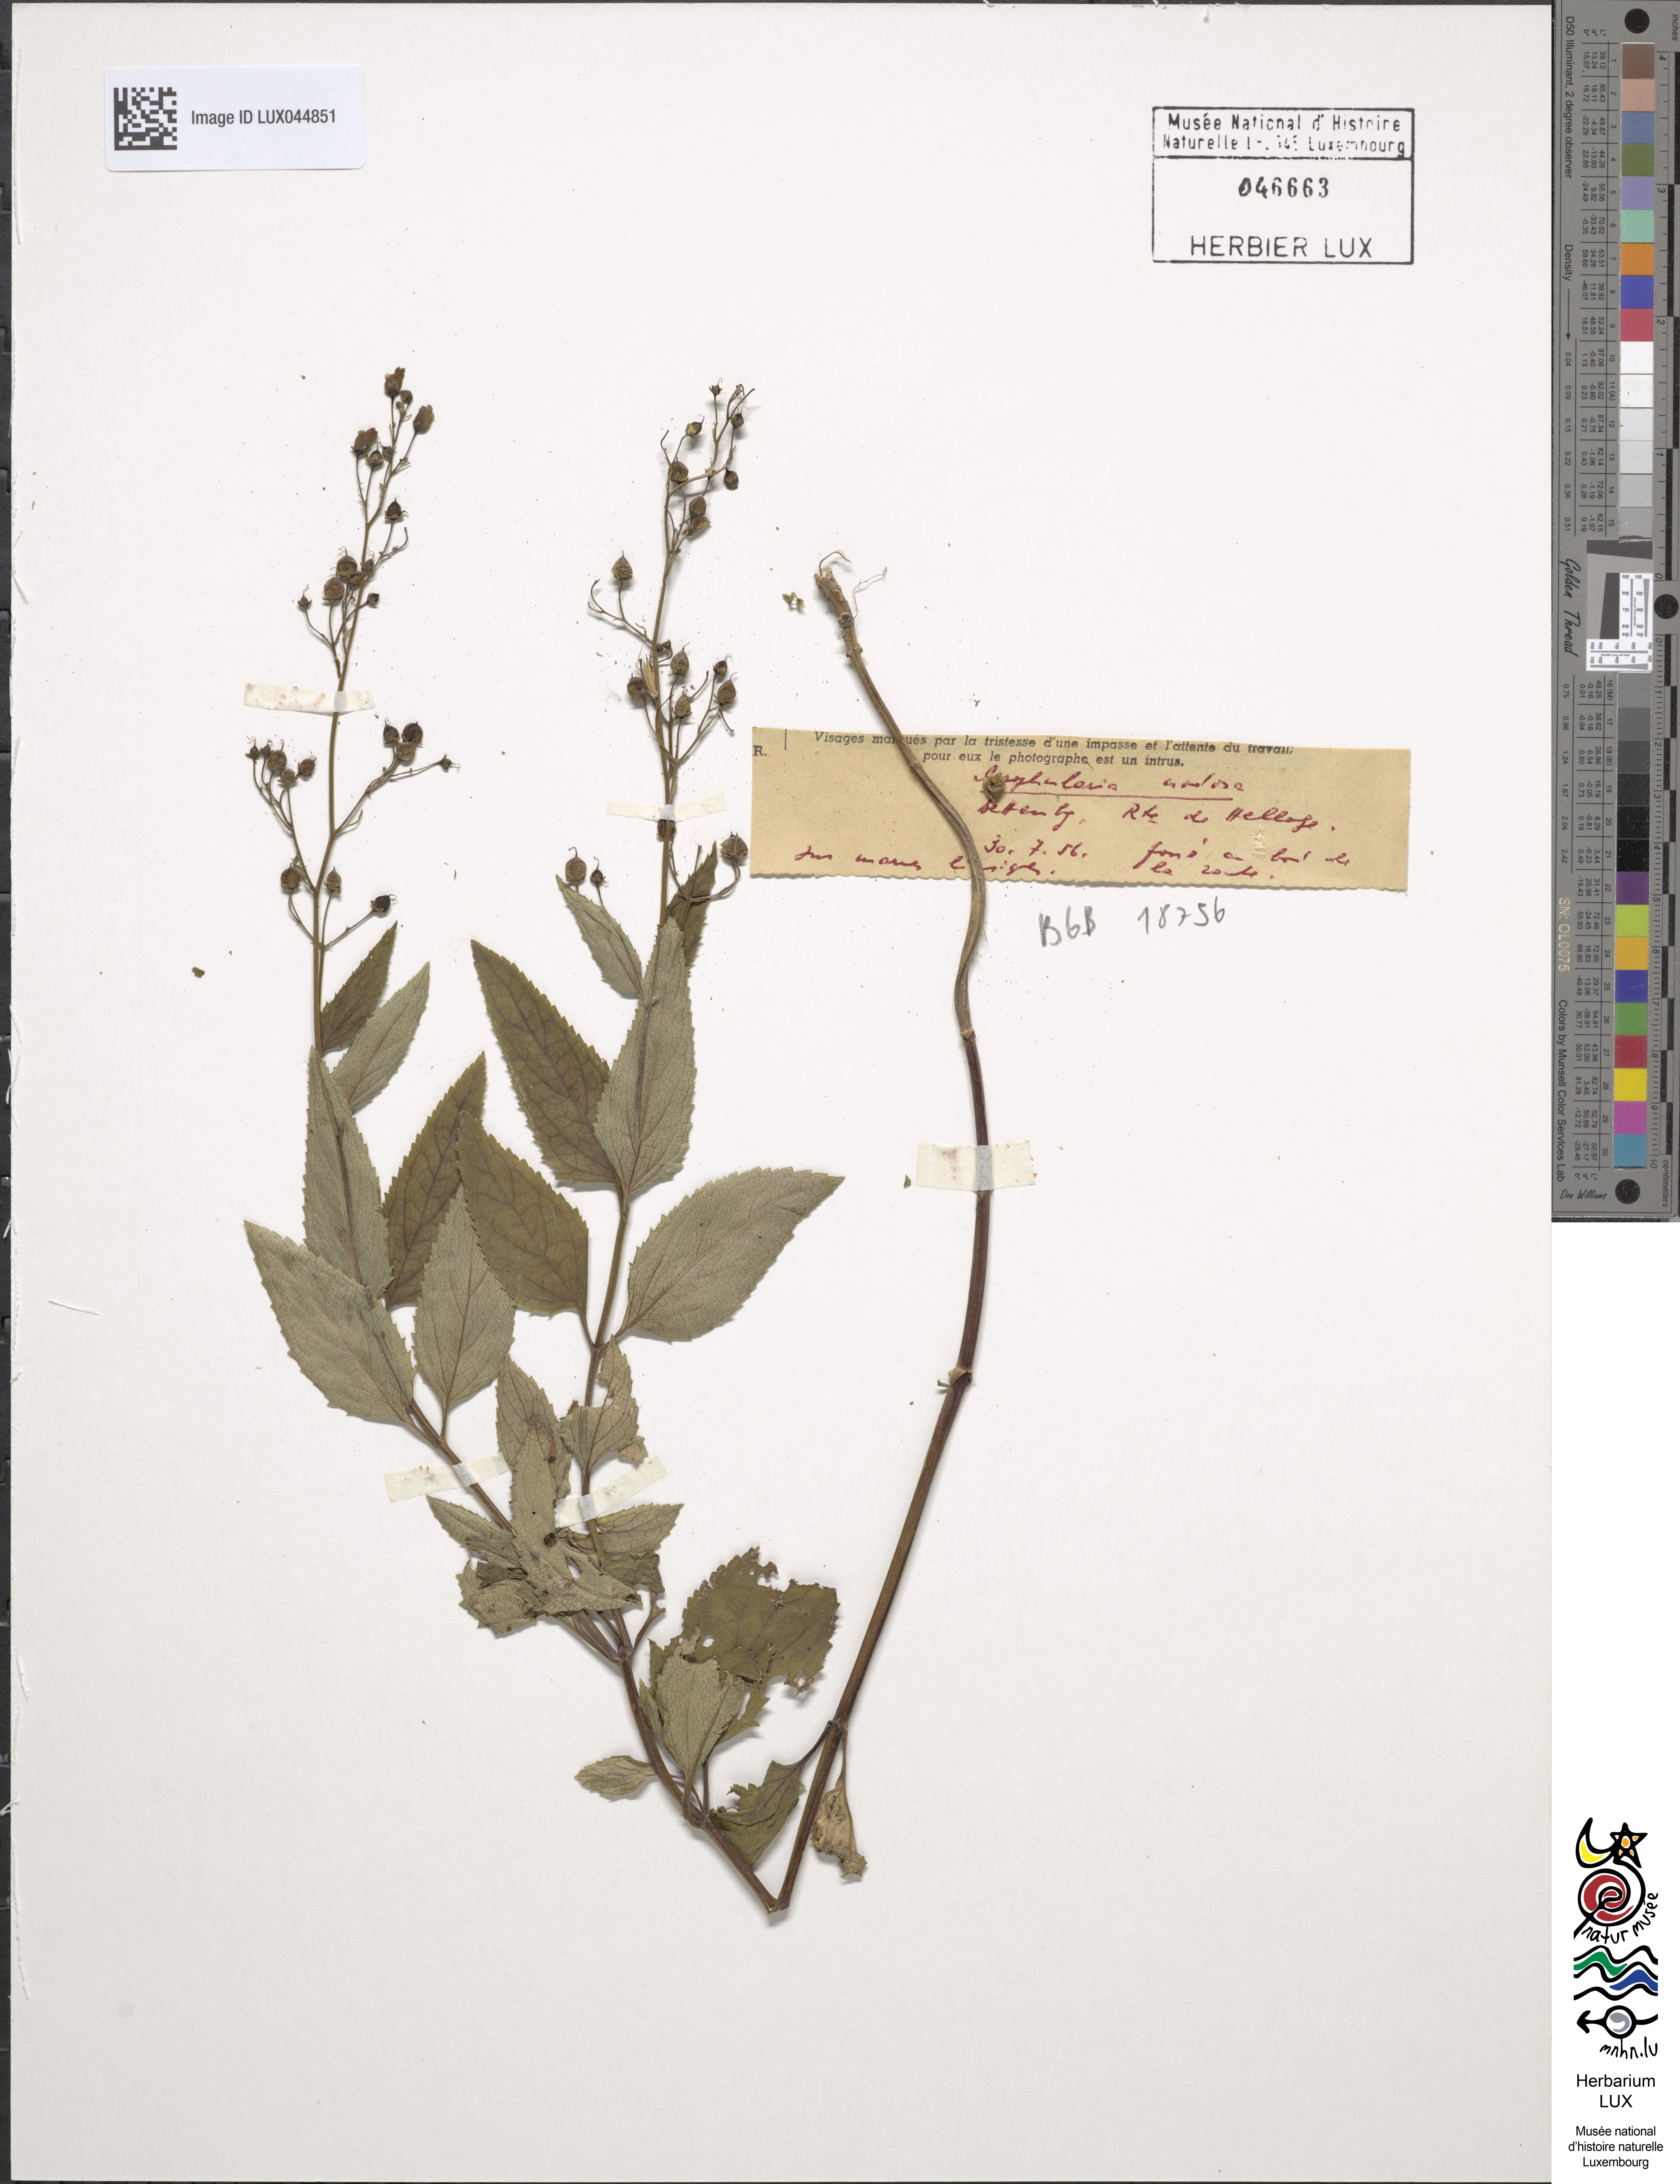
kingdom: Plantae
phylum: Tracheophyta
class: Magnoliopsida
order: Lamiales
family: Scrophulariaceae
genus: Scrophularia
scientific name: Scrophularia nodosa
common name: Common figwort
